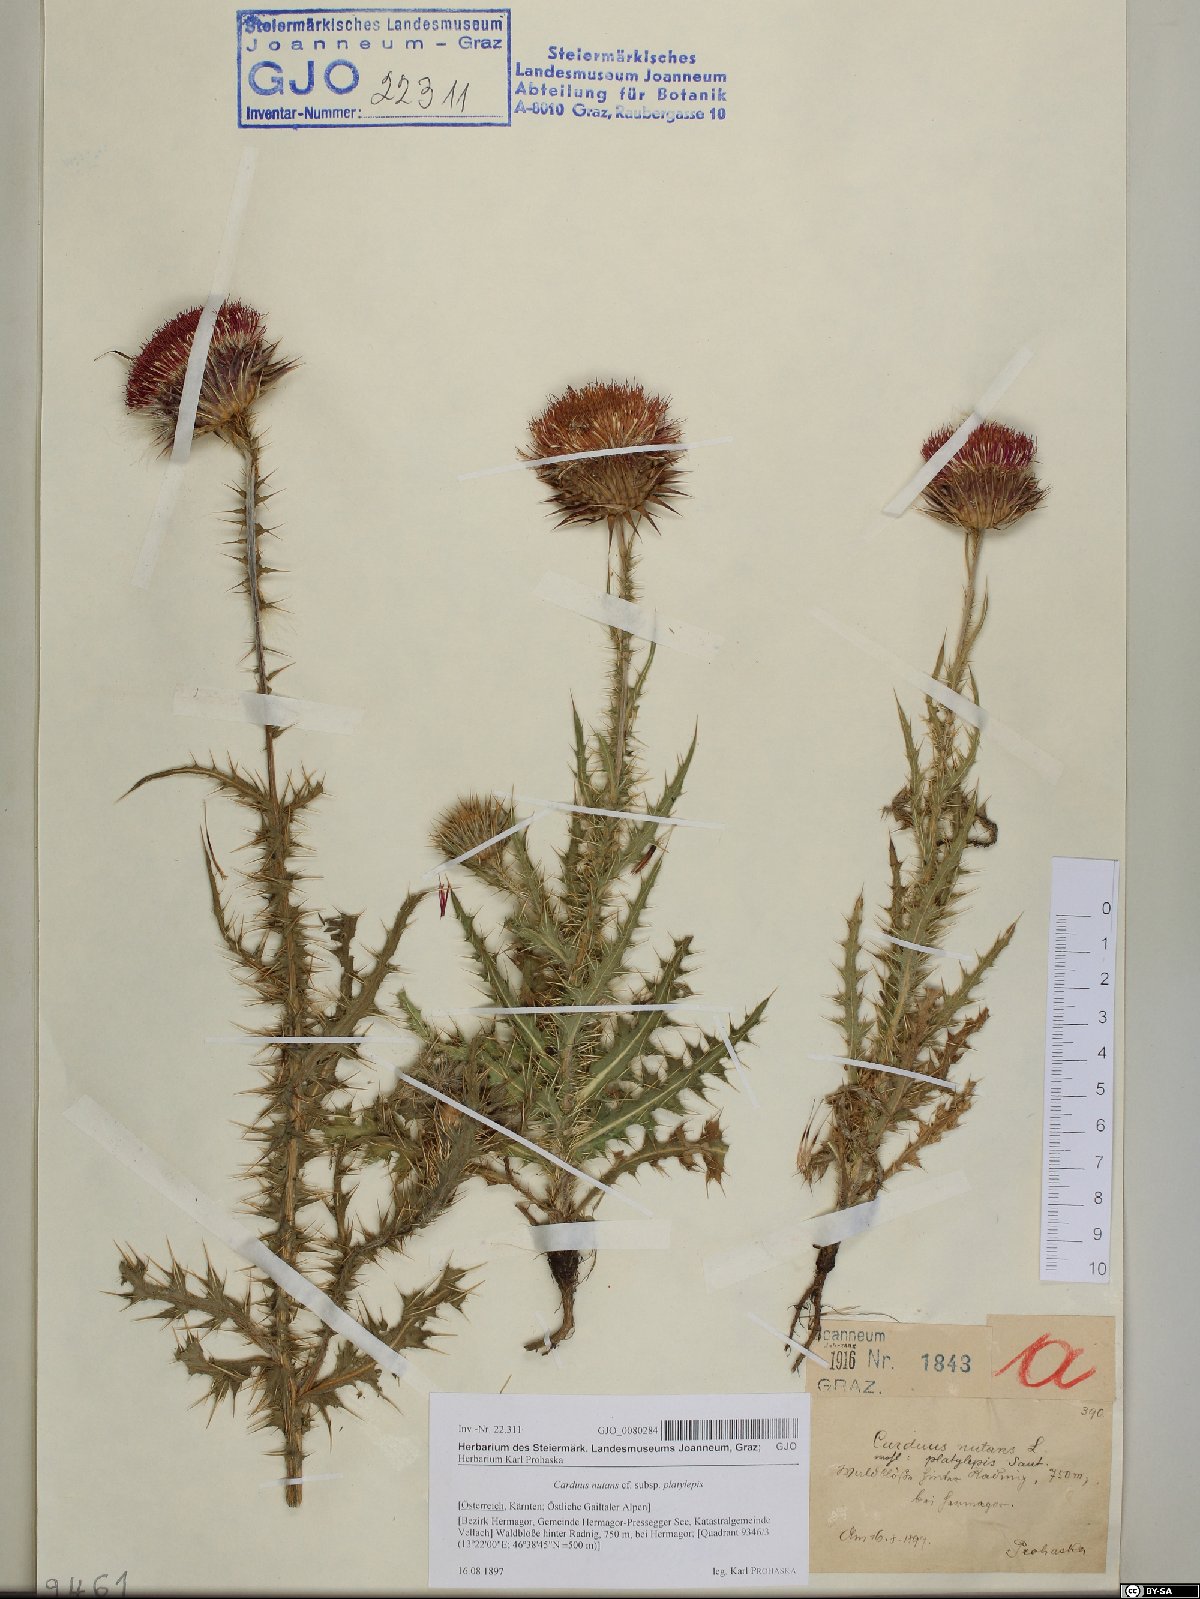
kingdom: Plantae
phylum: Tracheophyta
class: Magnoliopsida
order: Asterales
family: Asteraceae
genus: Carduus
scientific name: Carduus nutans
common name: Musk thistle
